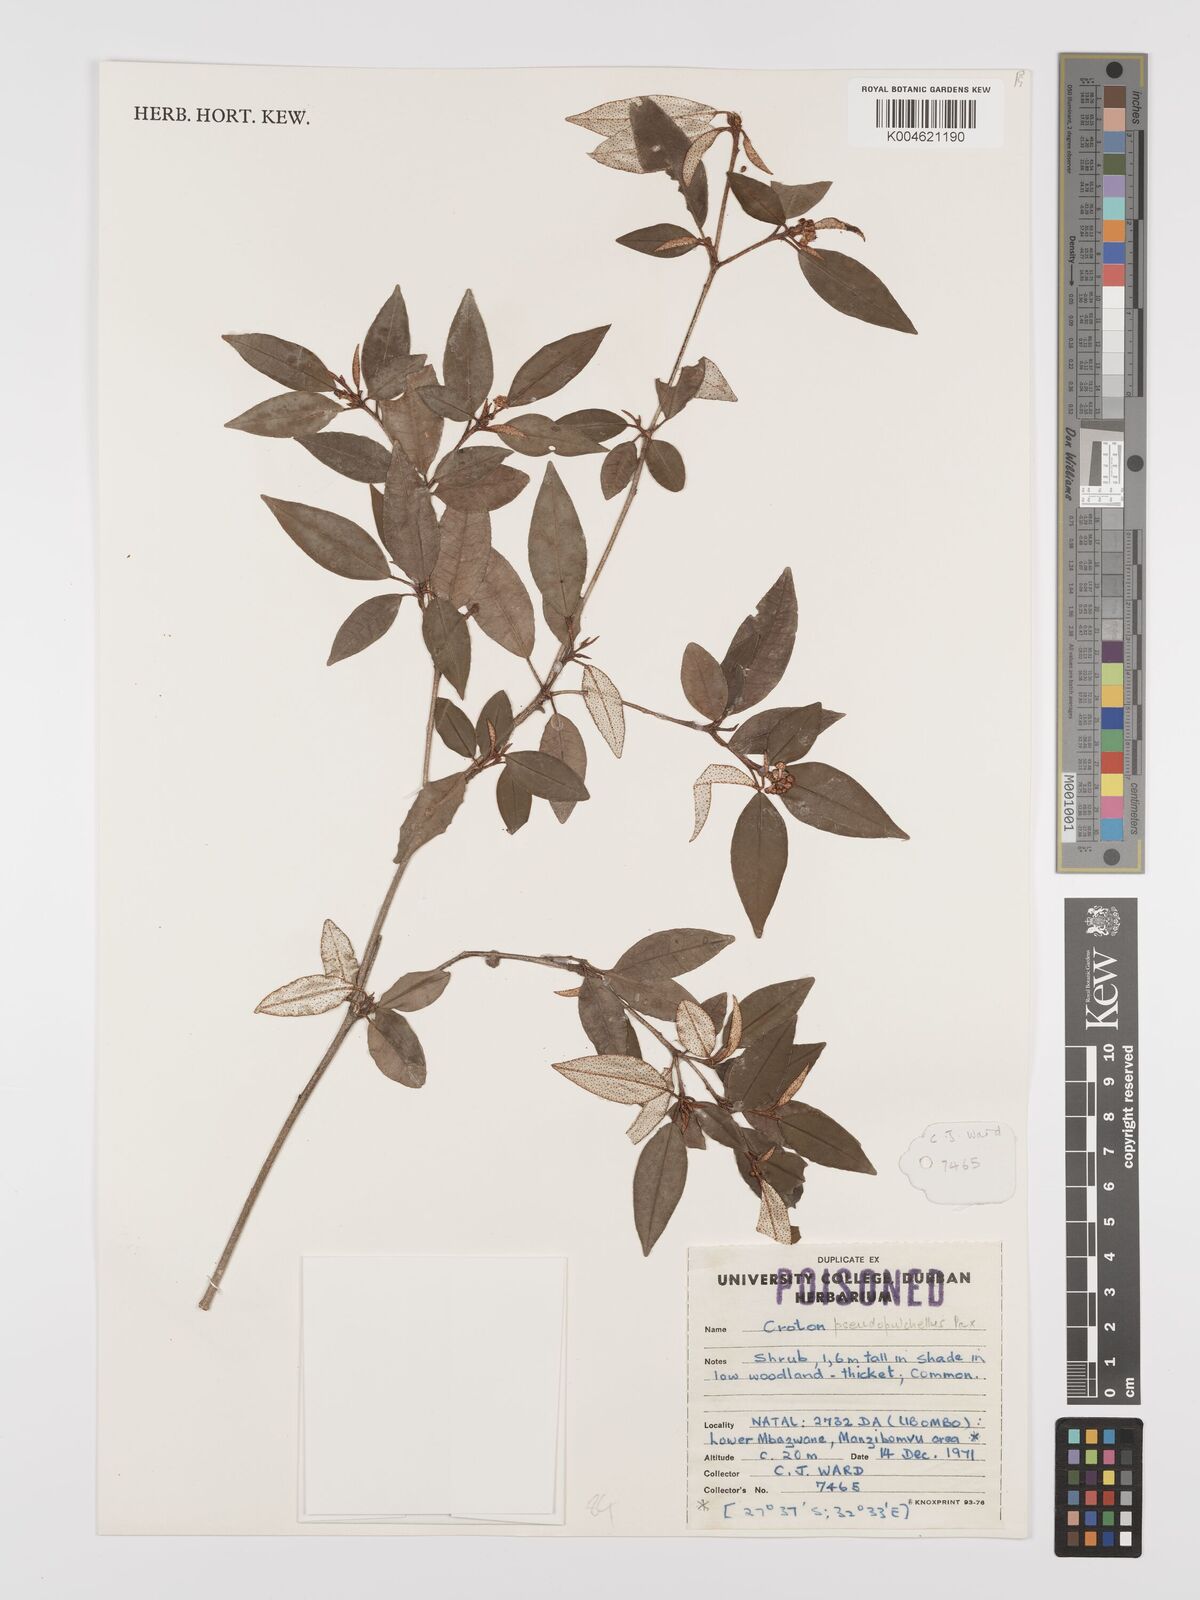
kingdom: Plantae
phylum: Tracheophyta
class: Magnoliopsida
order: Malpighiales
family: Euphorbiaceae
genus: Croton
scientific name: Croton pseudopulchellus
